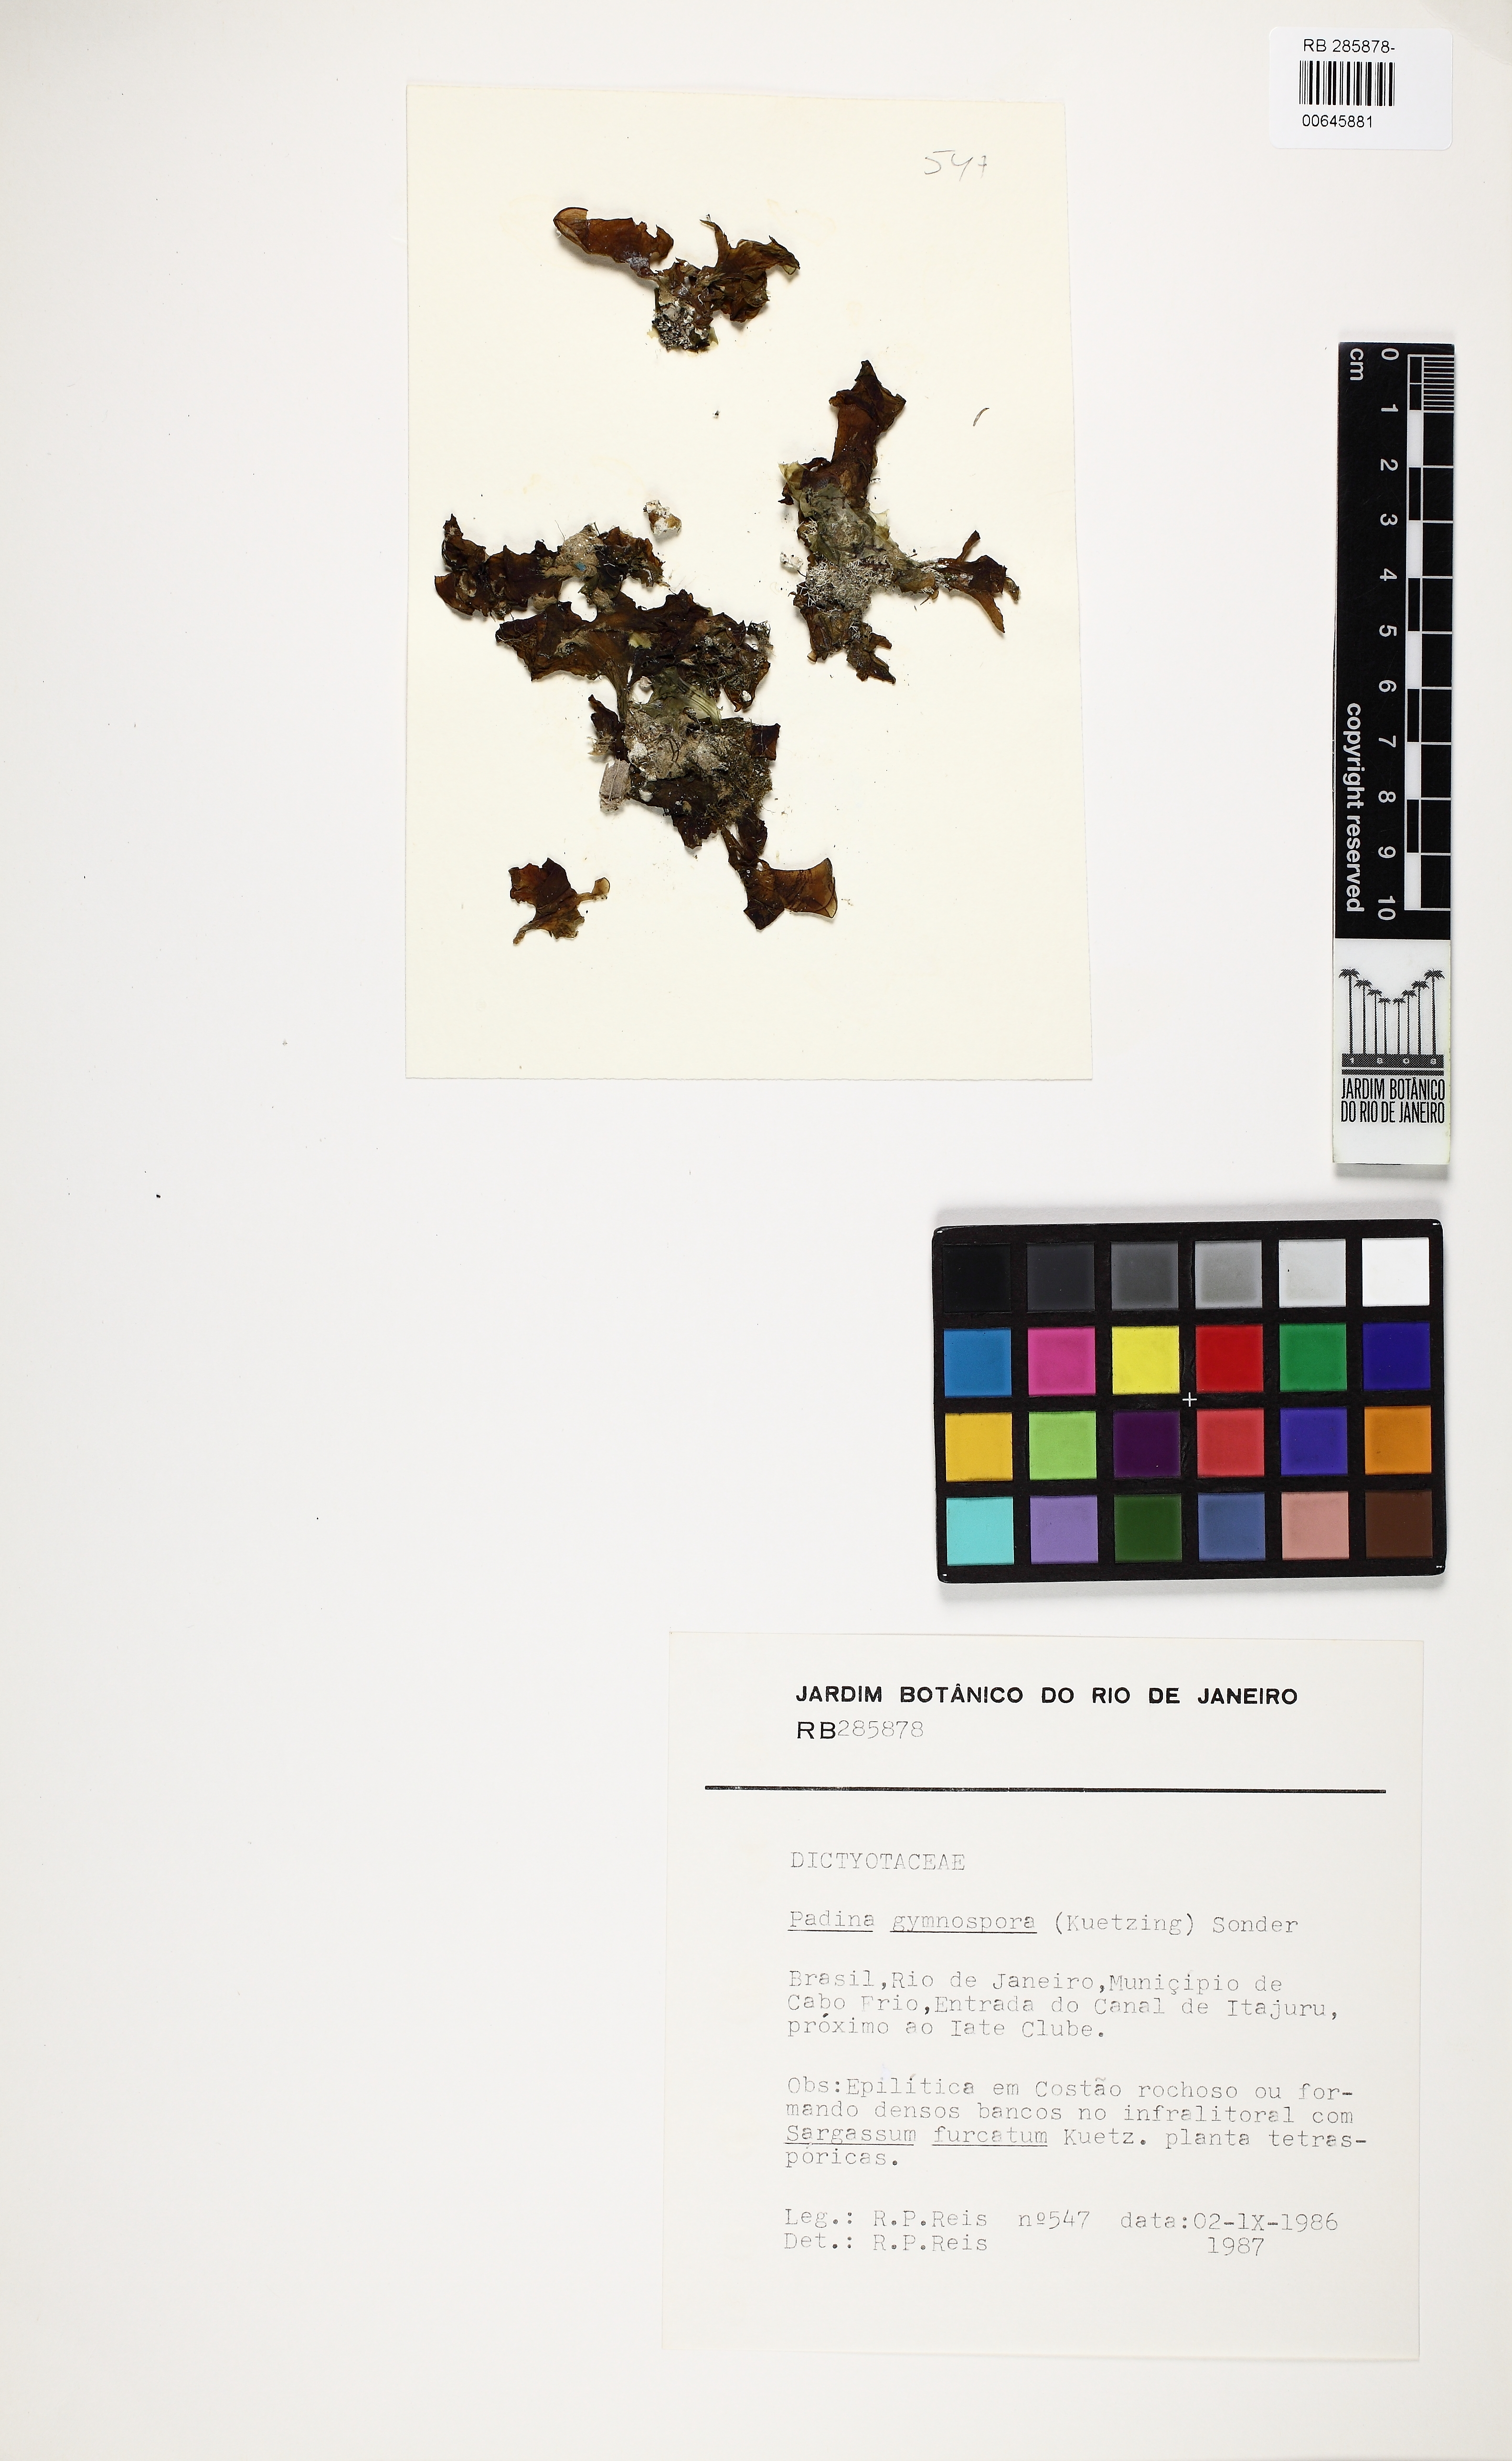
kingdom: Chromista
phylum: Ochrophyta
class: Phaeophyceae
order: Dictyotales
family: Dictyotaceae
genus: Padina
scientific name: Padina gymnospora
